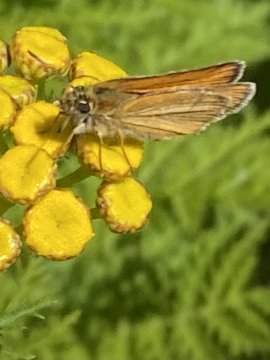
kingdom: Animalia
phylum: Arthropoda
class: Insecta
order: Lepidoptera
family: Hesperiidae
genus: Thymelicus
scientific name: Thymelicus lineola
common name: European Skipper
